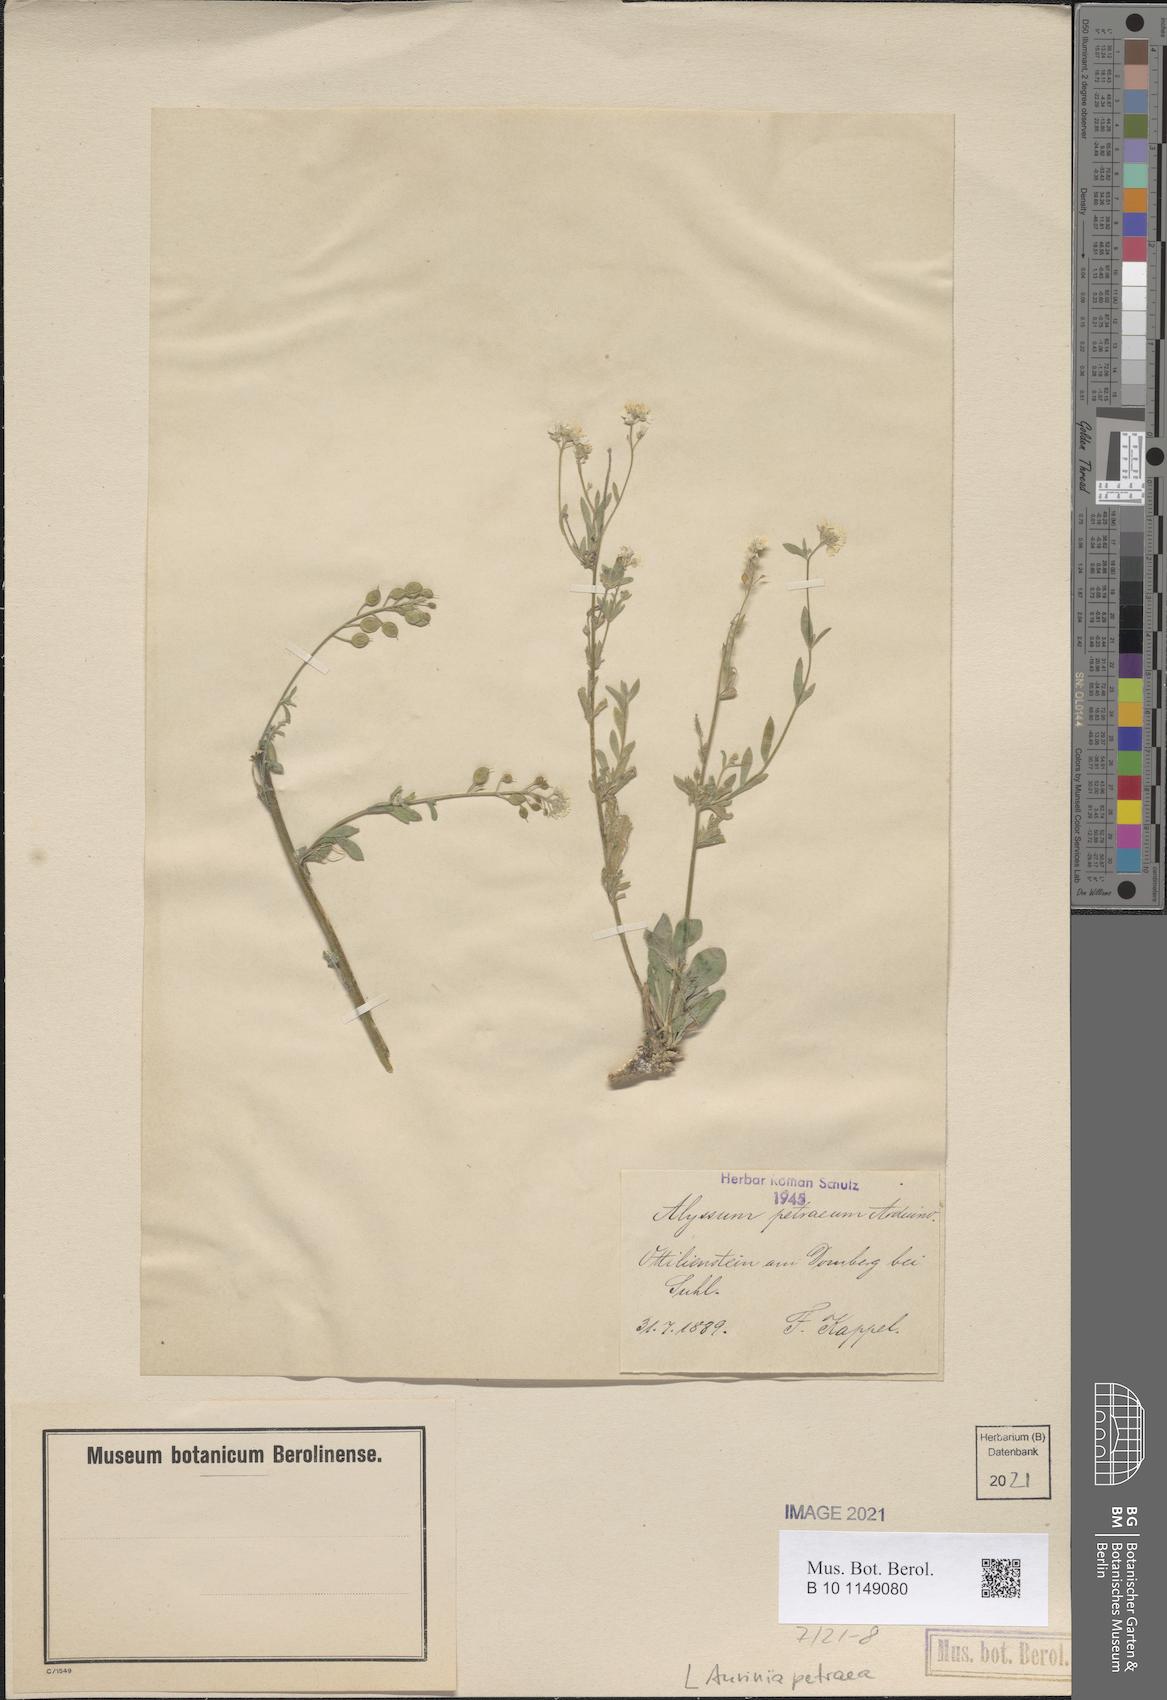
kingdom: Plantae
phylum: Tracheophyta
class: Magnoliopsida
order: Brassicales
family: Brassicaceae
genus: Aurinia
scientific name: Aurinia petraea
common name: Goldentuft
